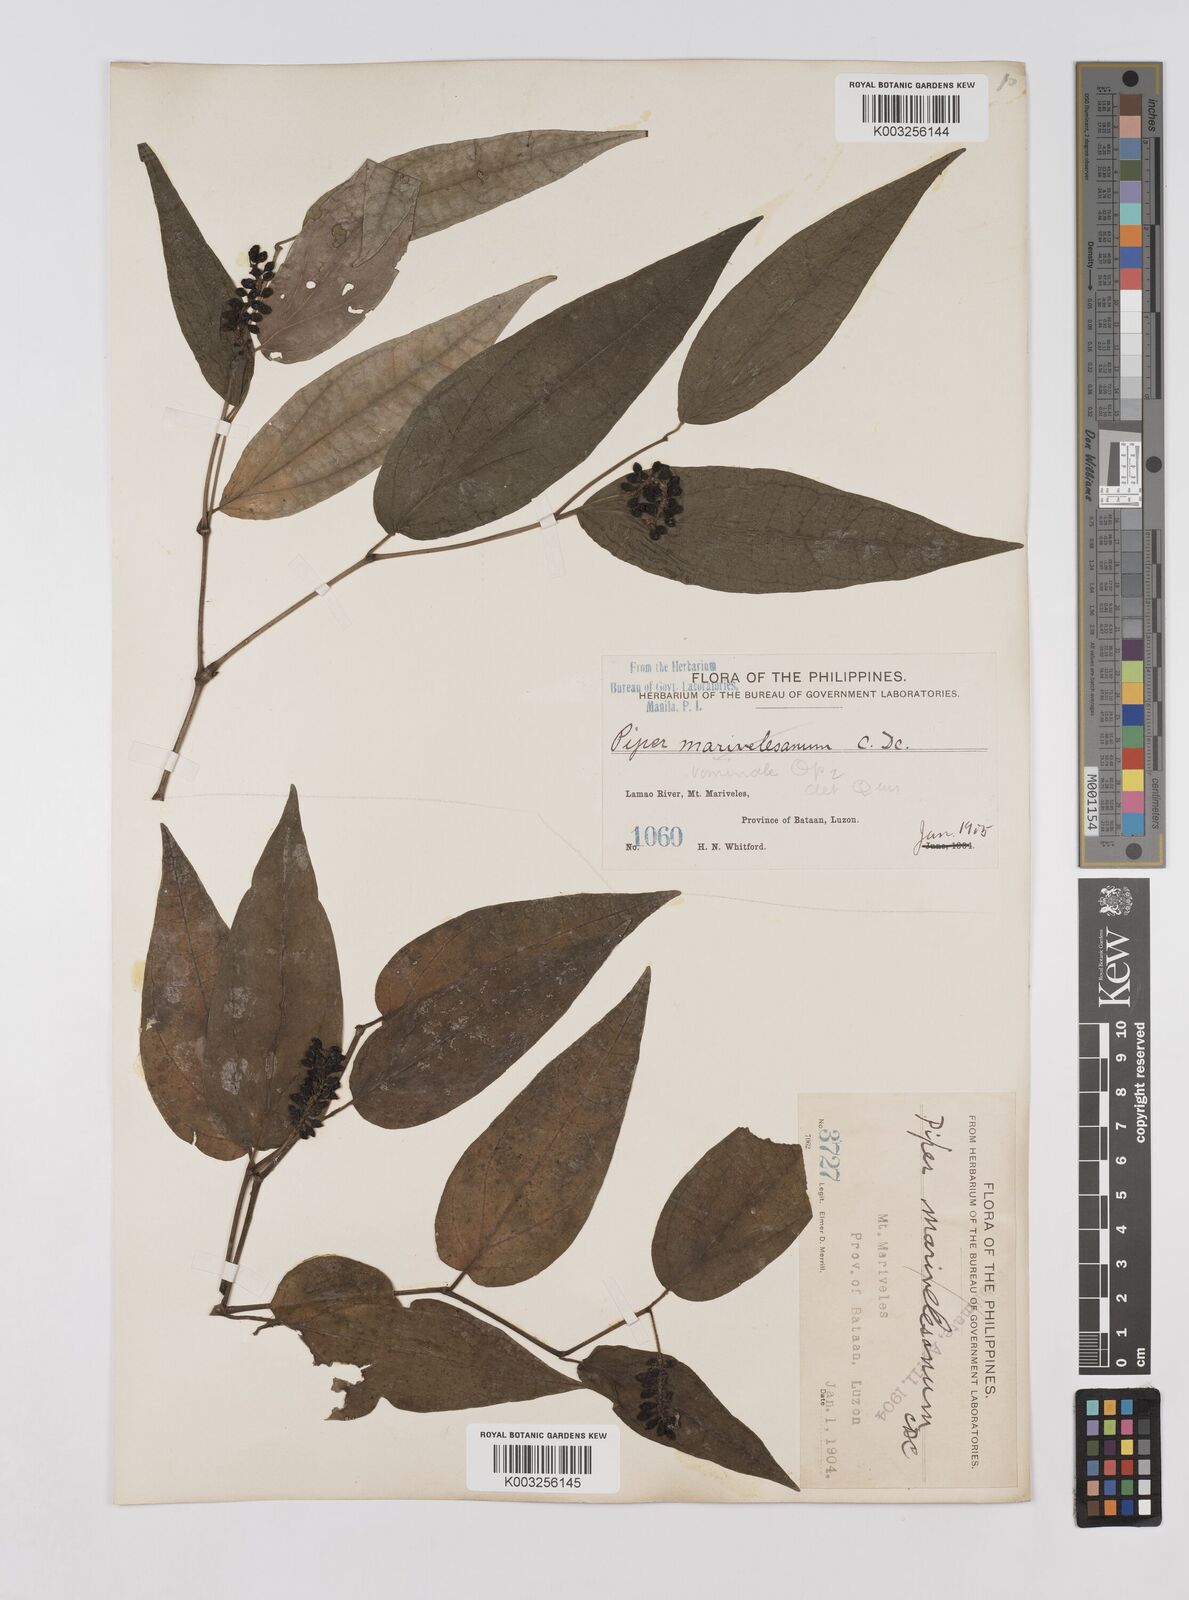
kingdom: Plantae
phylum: Tracheophyta
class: Magnoliopsida
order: Piperales
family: Piperaceae
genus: Piper
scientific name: Piper lanatum
